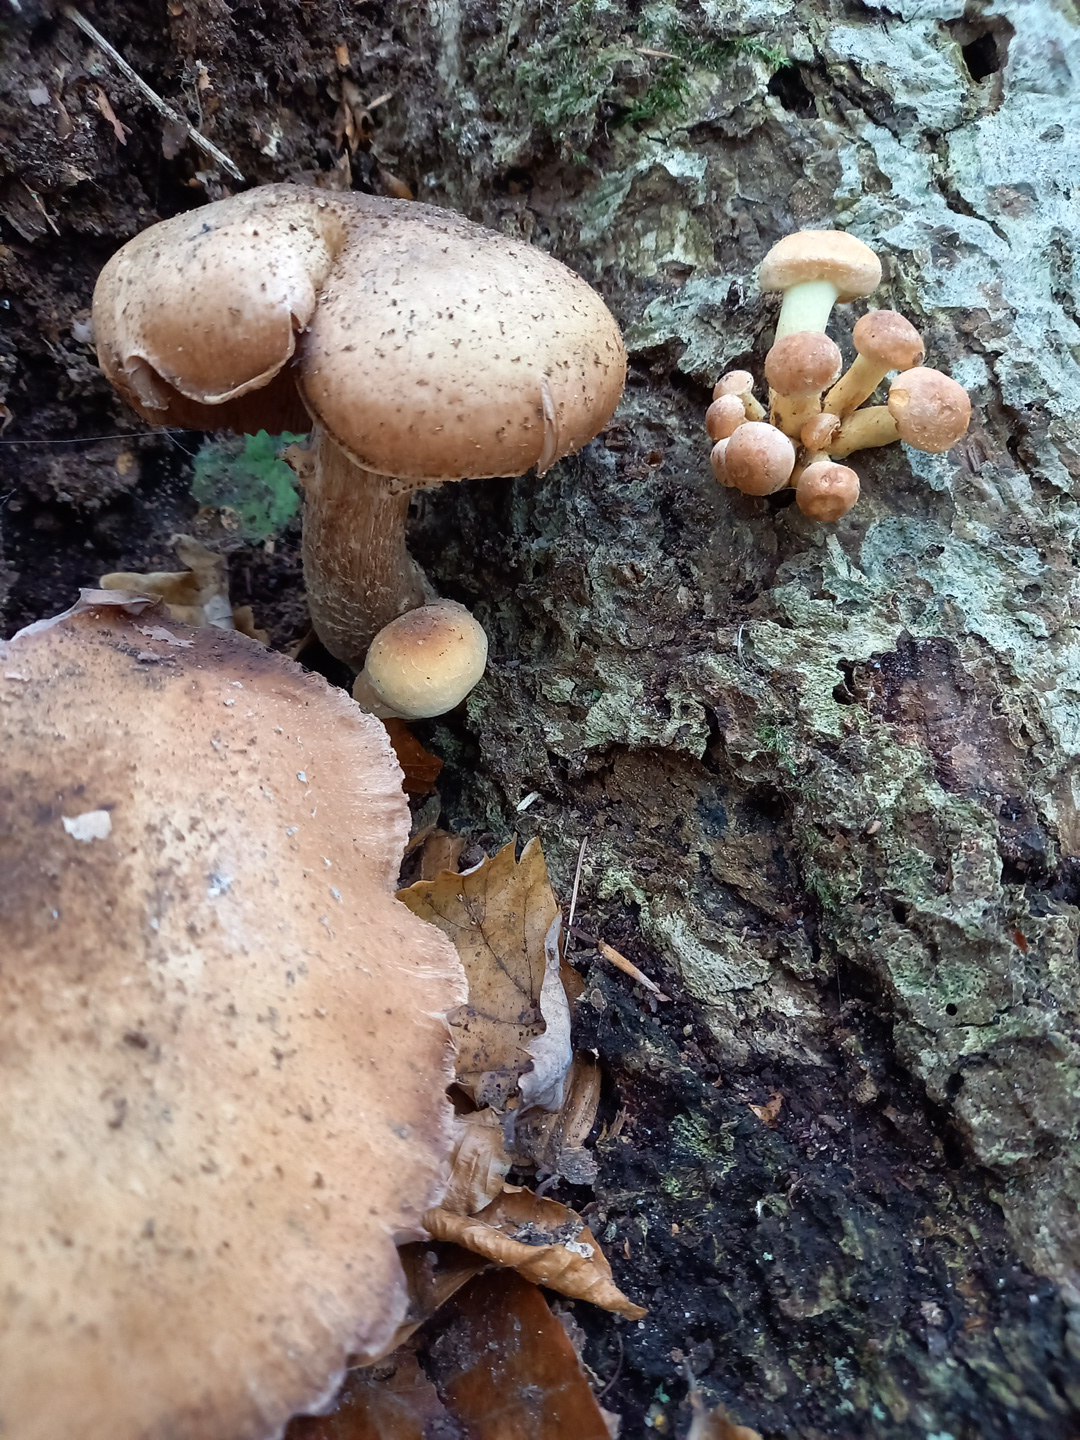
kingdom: Fungi
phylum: Basidiomycota
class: Agaricomycetes
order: Agaricales
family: Physalacriaceae
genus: Armillaria
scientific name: Armillaria lutea
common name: køllestokket honningsvamp
